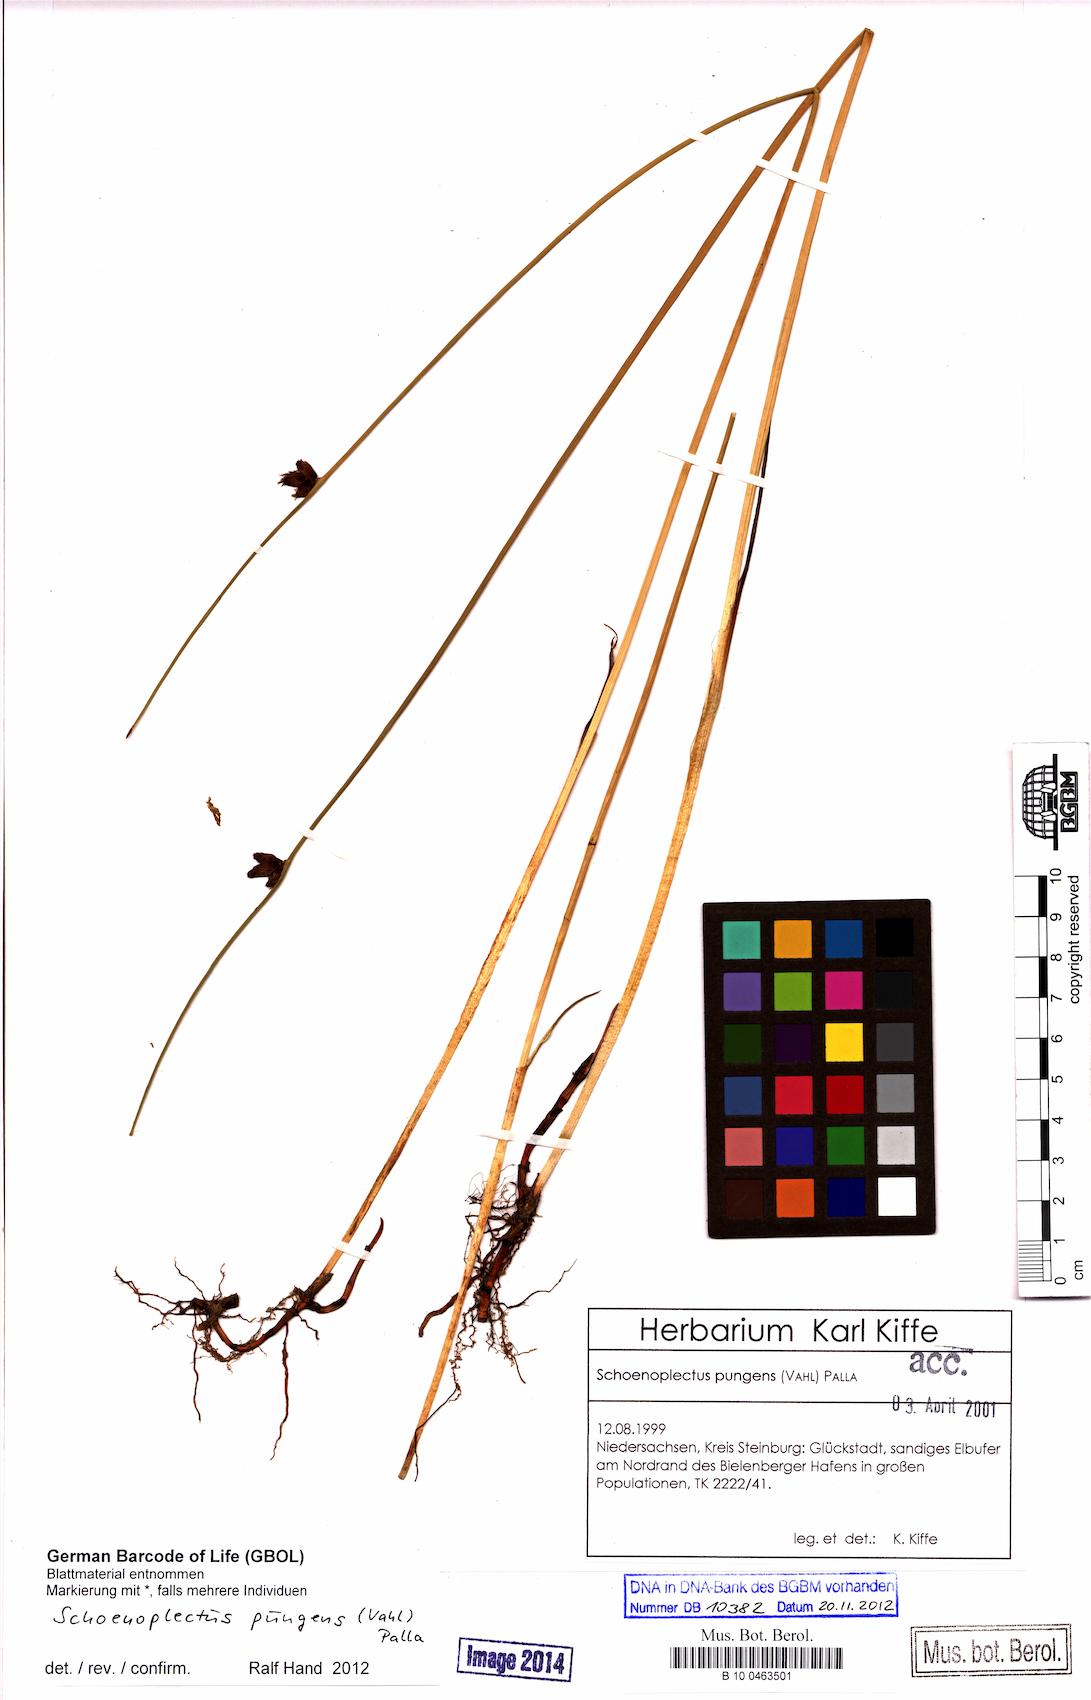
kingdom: Plantae
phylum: Tracheophyta
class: Liliopsida
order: Poales
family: Cyperaceae
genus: Schoenoplectus
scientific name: Schoenoplectus pungens
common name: Sharp club-rush
